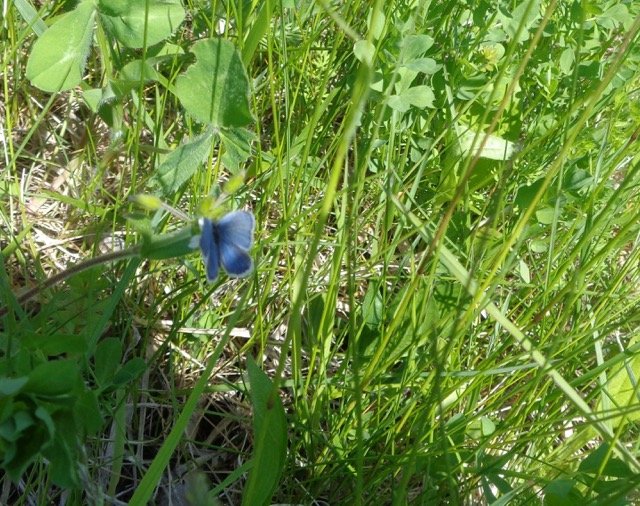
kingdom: Animalia
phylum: Arthropoda
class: Insecta
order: Lepidoptera
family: Lycaenidae
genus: Elkalyce
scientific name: Elkalyce comyntas
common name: Eastern Tailed-Blue
